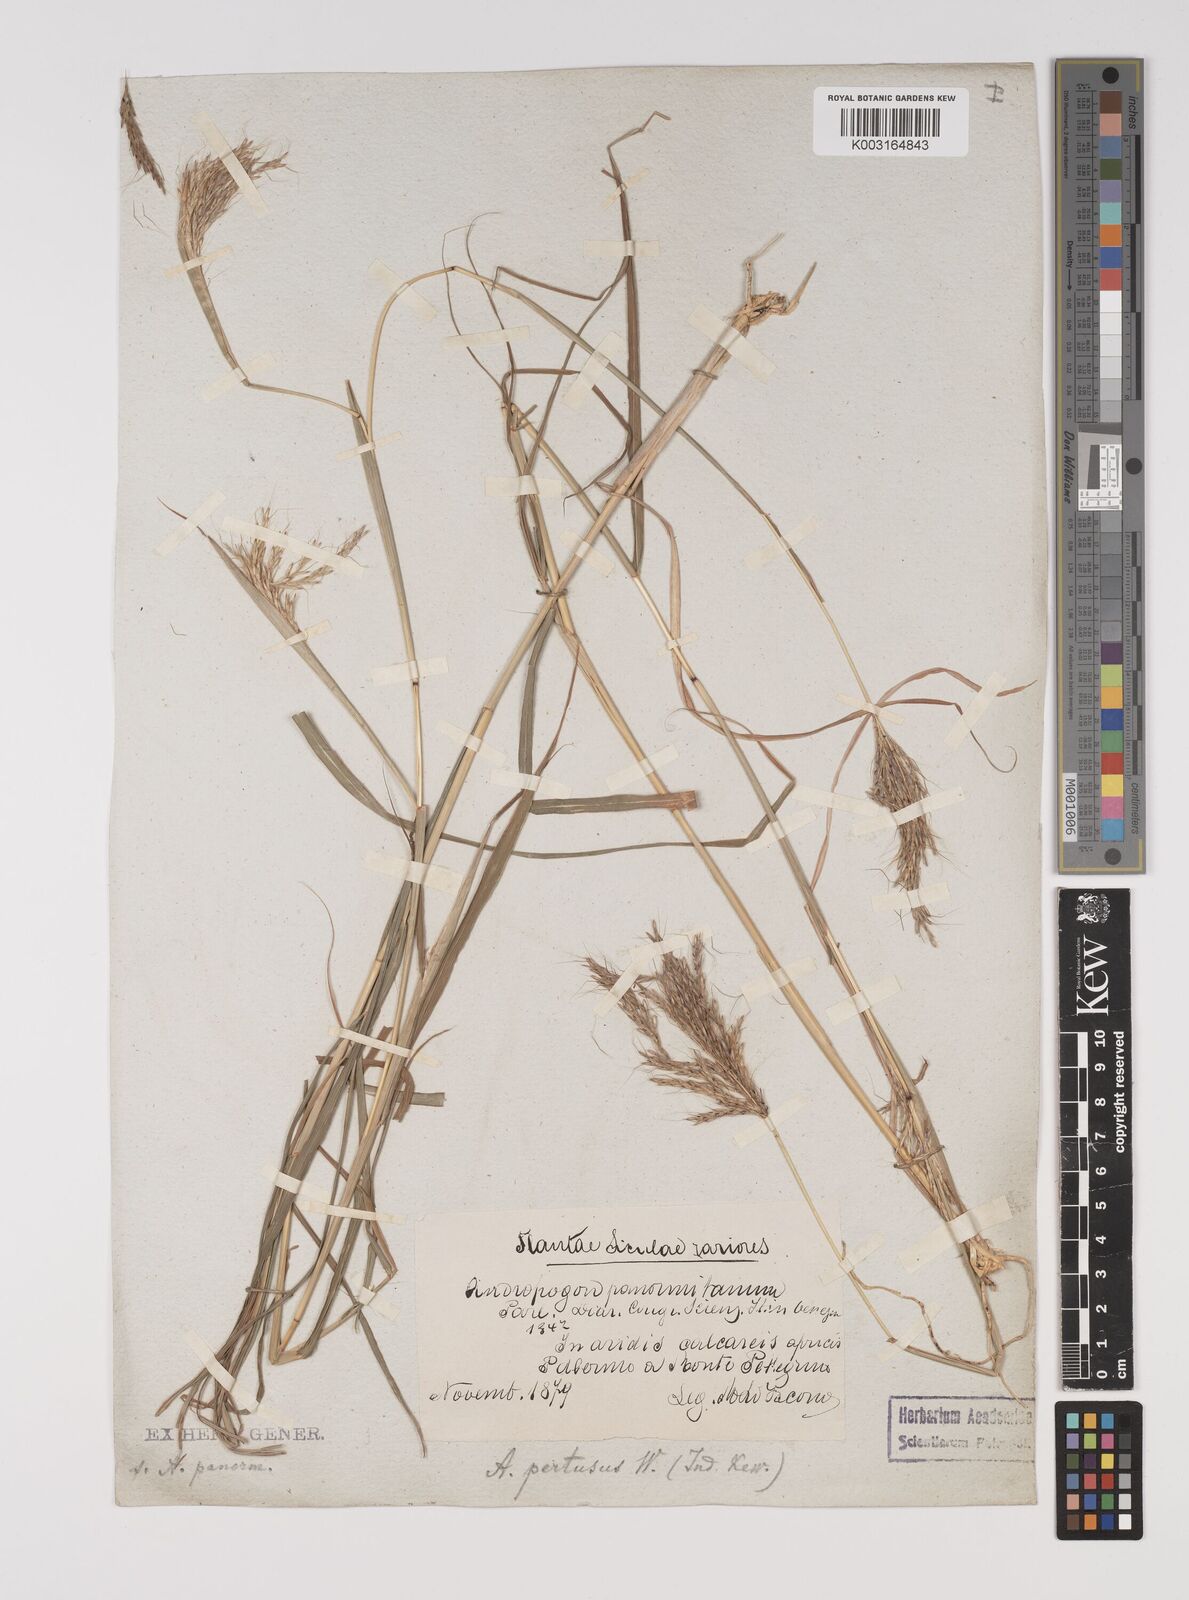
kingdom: Plantae
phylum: Tracheophyta
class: Liliopsida
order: Poales
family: Poaceae
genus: Bothriochloa
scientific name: Bothriochloa insculpta
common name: Creeping-bluegrass
